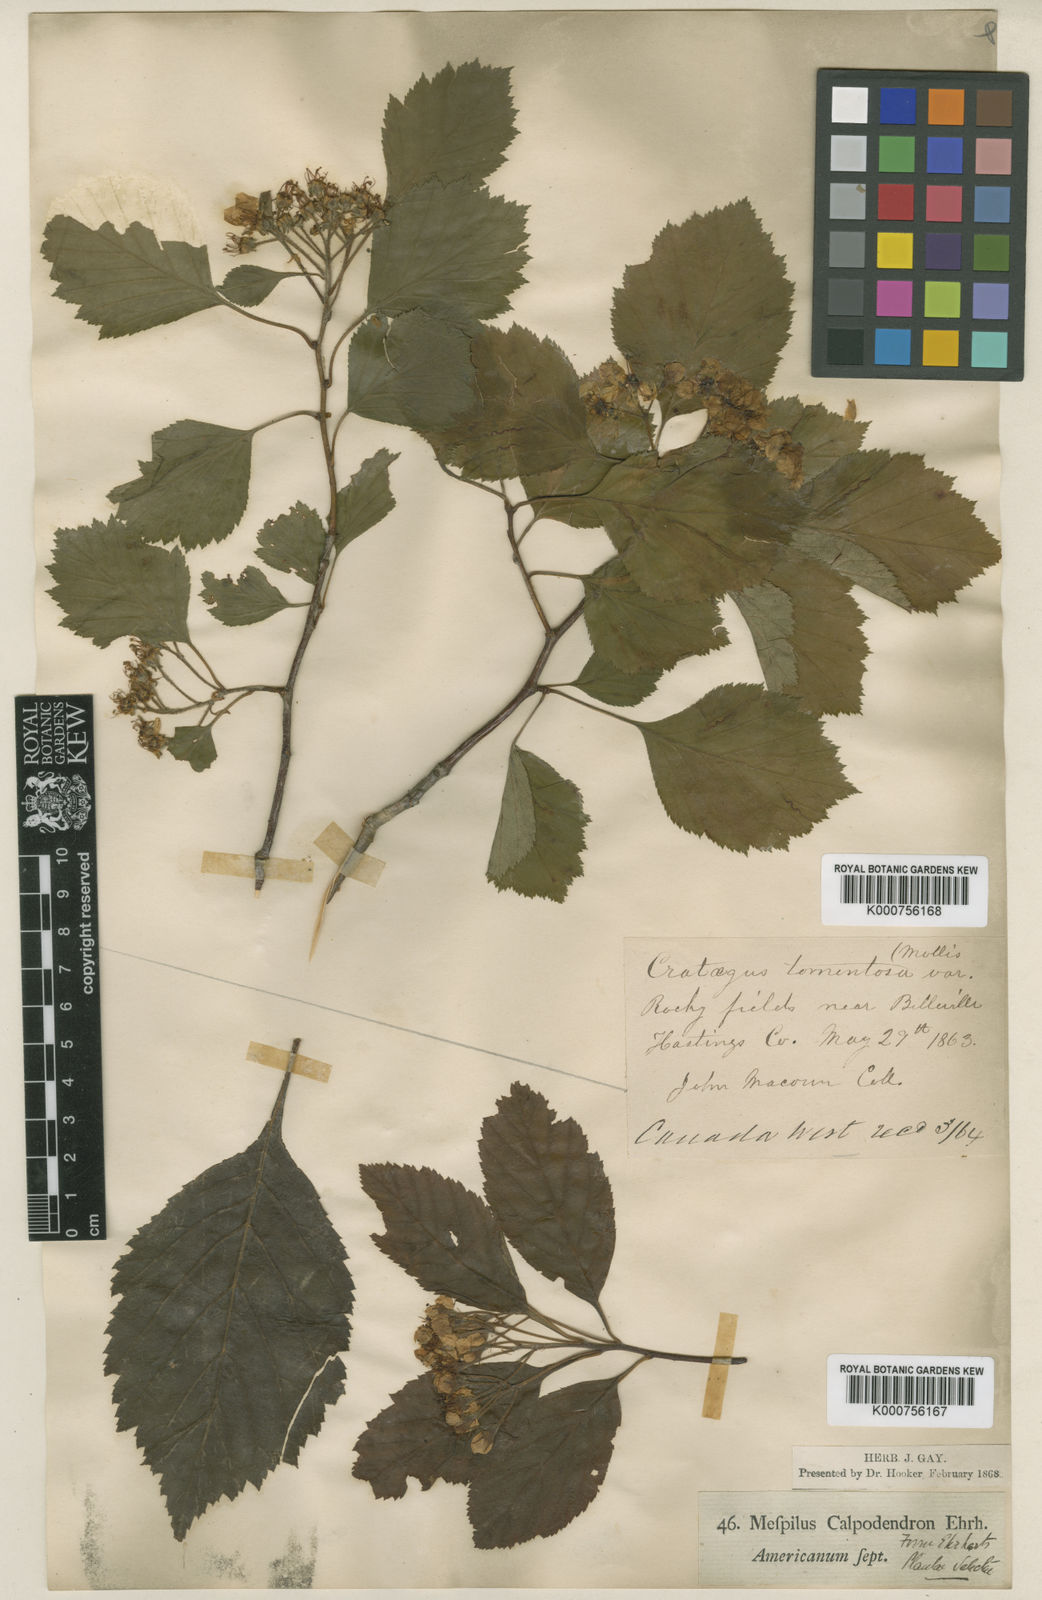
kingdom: Plantae
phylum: Tracheophyta
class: Magnoliopsida
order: Rosales
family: Rosaceae
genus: Crataegus
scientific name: Crataegus calpodendron
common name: Pear hawthorn
